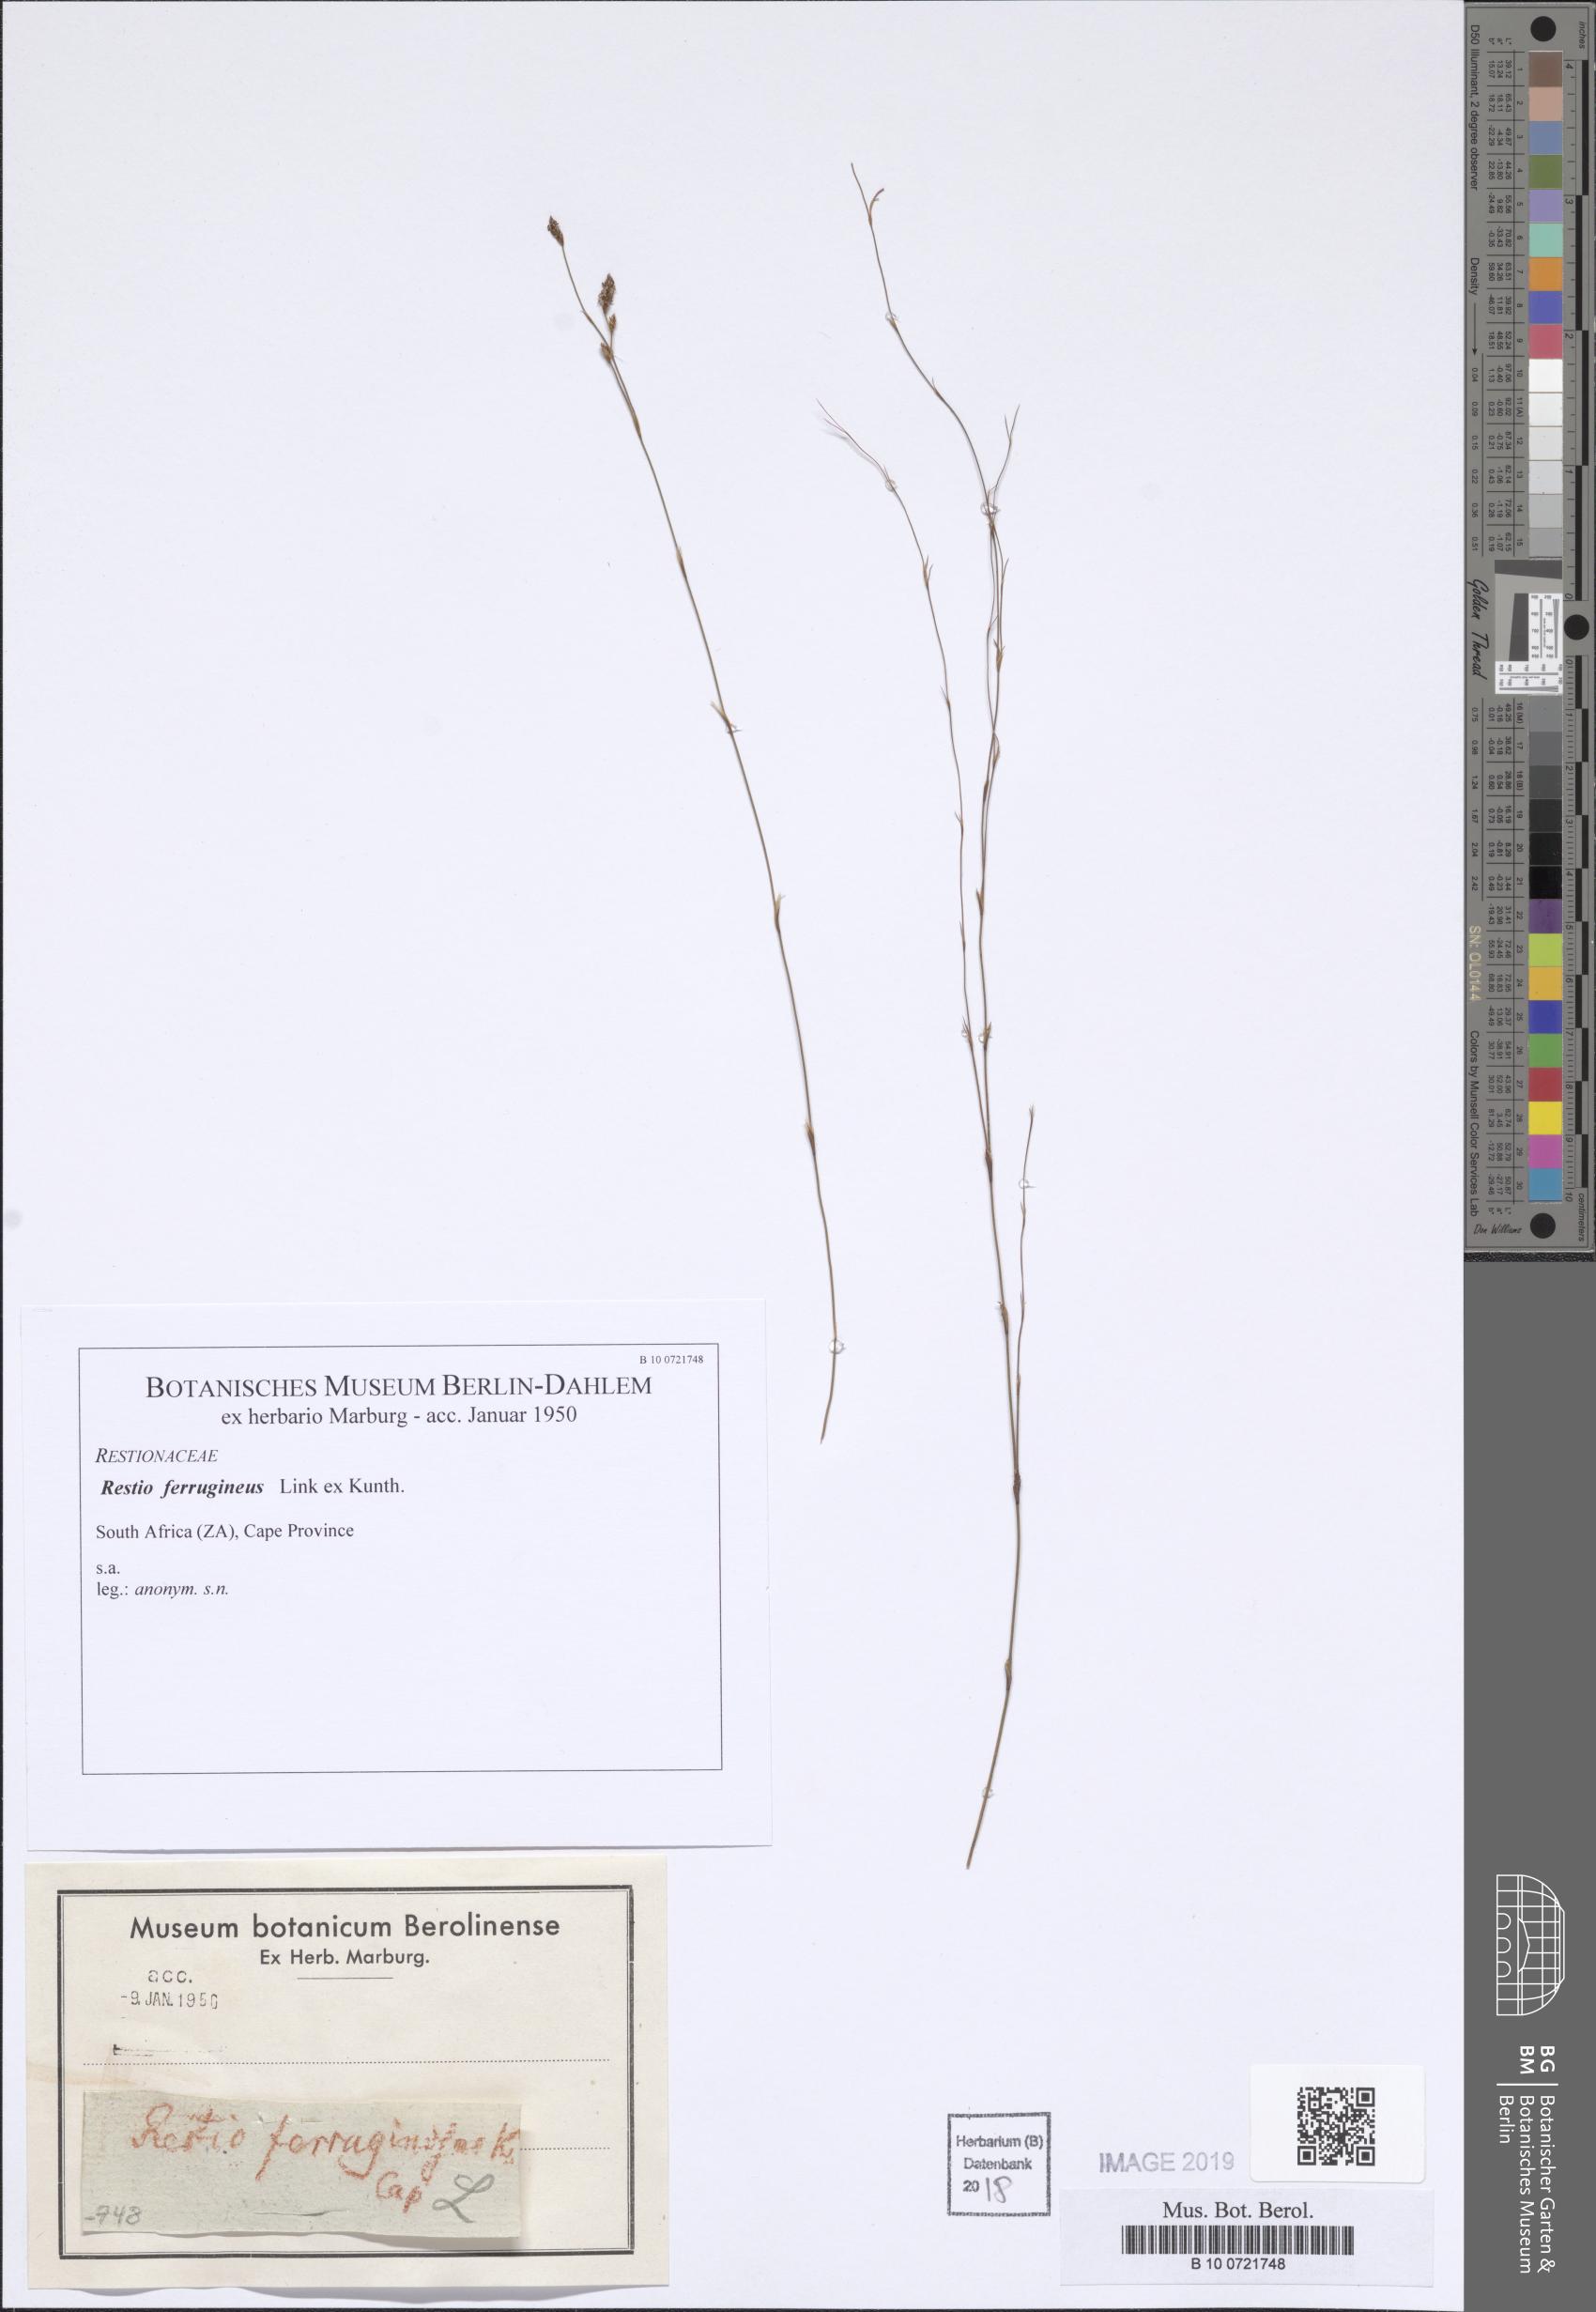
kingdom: Plantae
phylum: Tracheophyta
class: Liliopsida
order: Poales
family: Restionaceae
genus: Restio
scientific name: Restio gaudichaudianus
